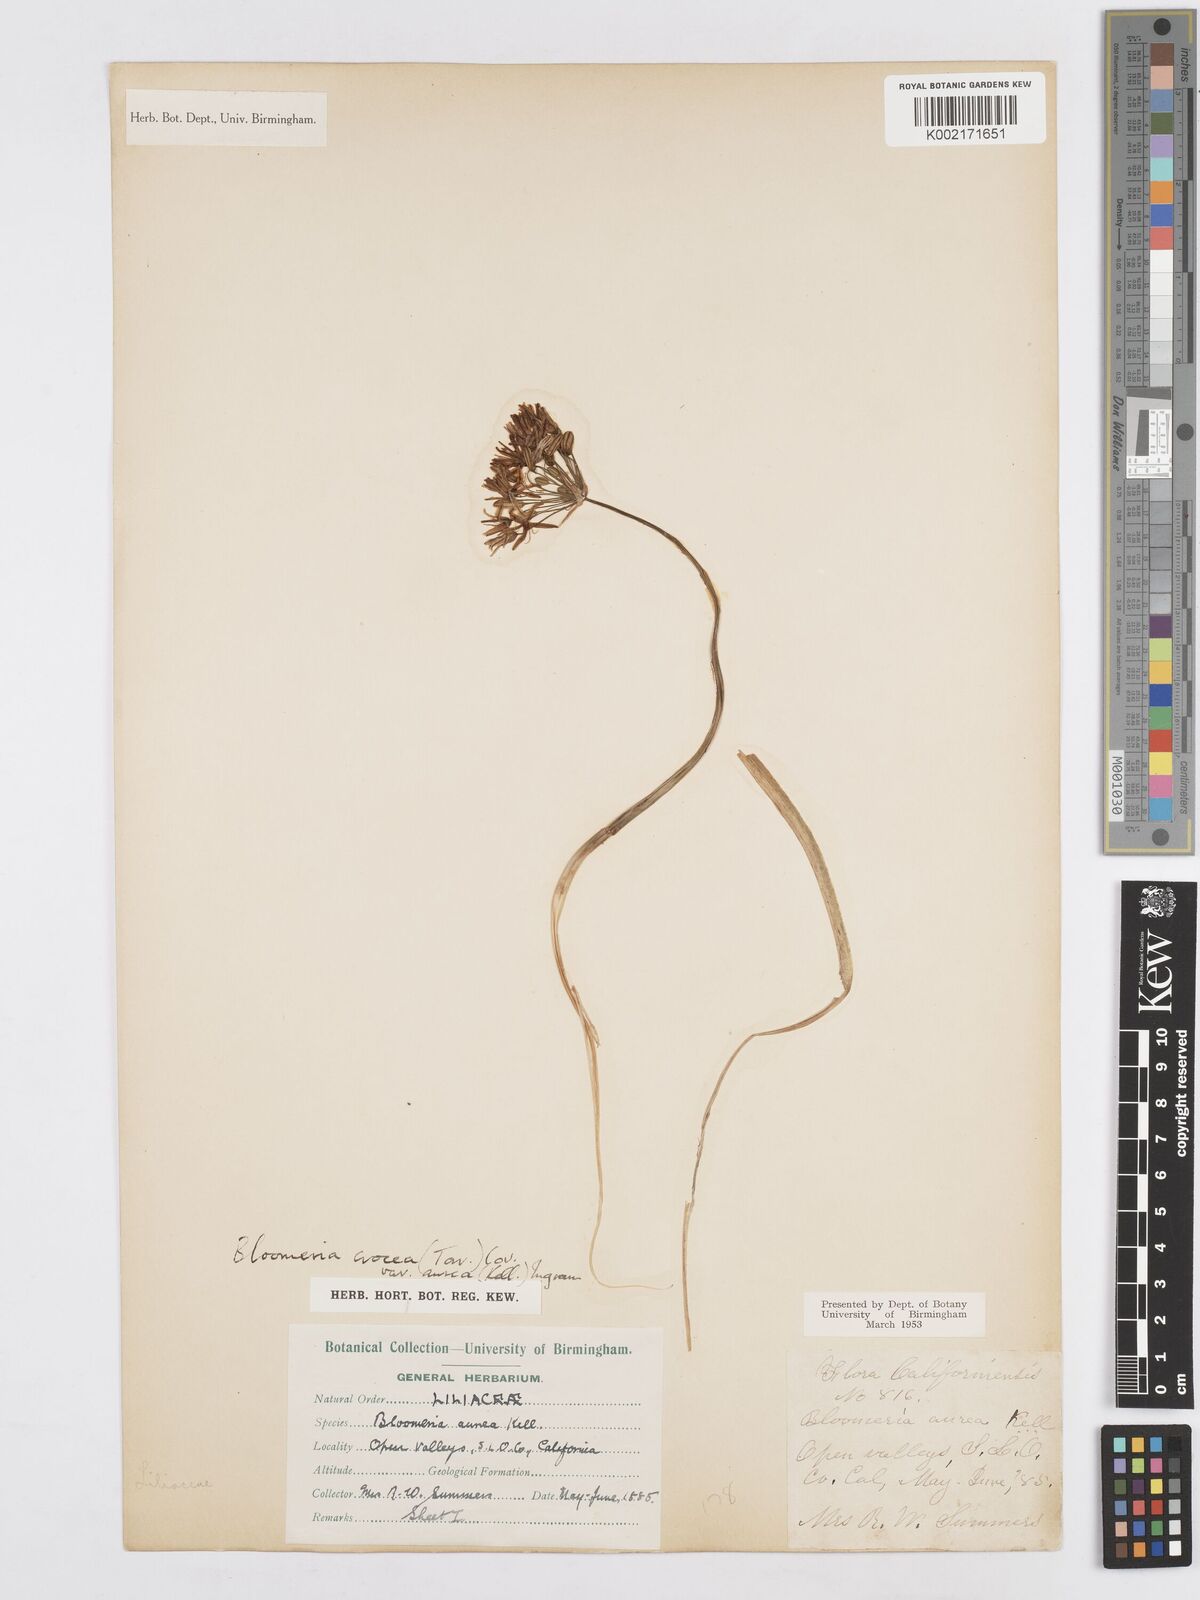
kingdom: Plantae
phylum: Tracheophyta
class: Liliopsida
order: Asparagales
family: Asparagaceae
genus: Bloomeria
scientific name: Bloomeria crocea
